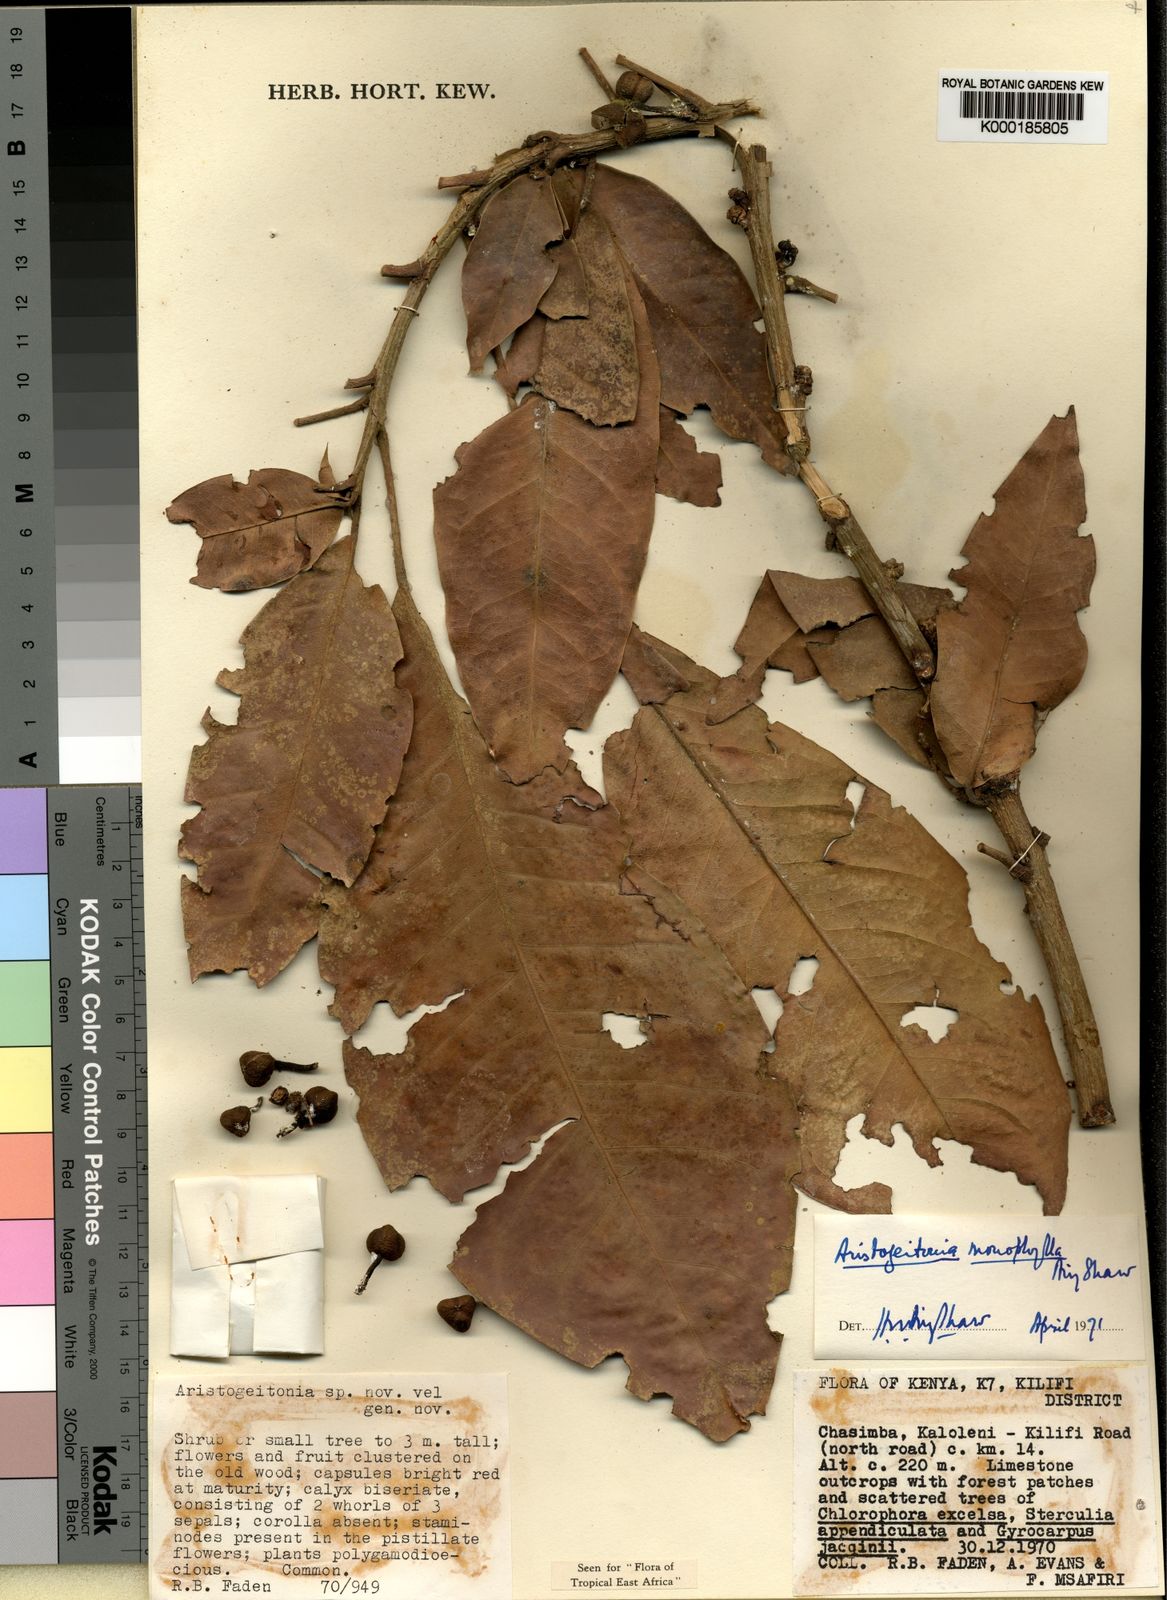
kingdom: Plantae
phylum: Tracheophyta
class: Magnoliopsida
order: Malpighiales
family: Picrodendraceae
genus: Aristogeitonia
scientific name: Aristogeitonia monophylla
